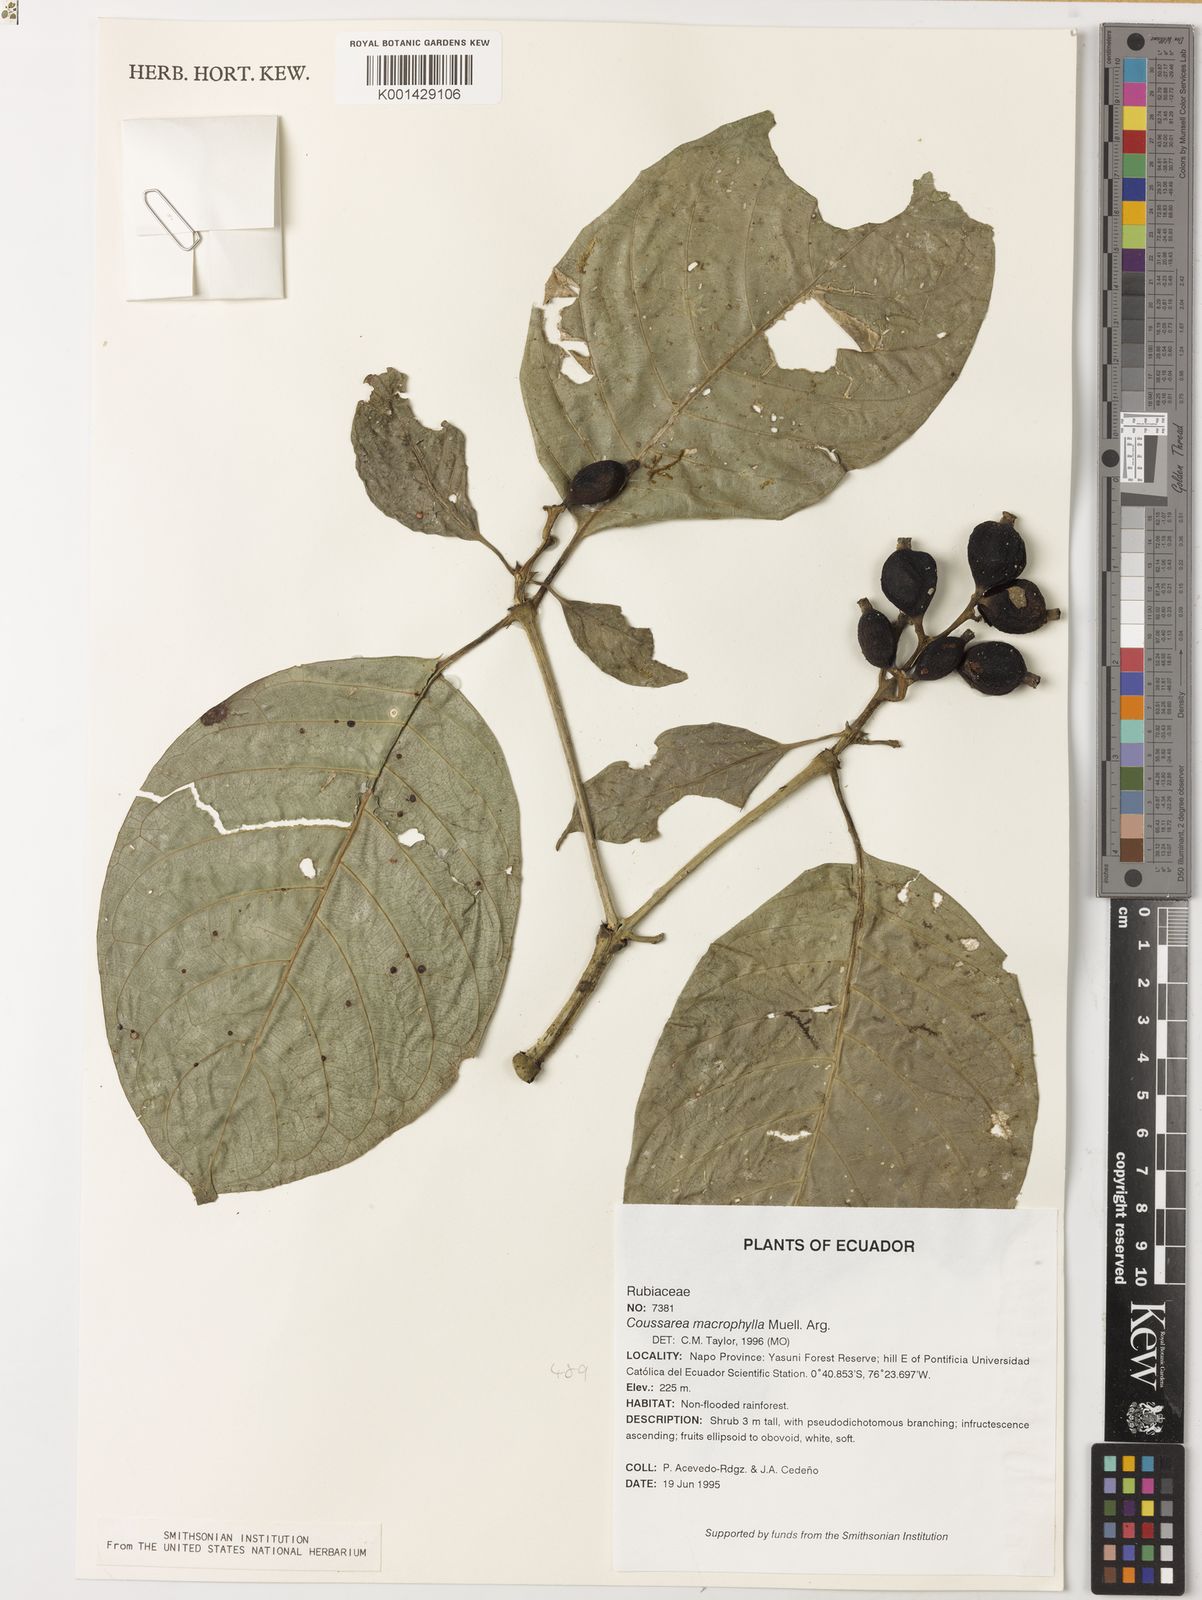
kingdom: Plantae
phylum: Tracheophyta
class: Magnoliopsida
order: Gentianales
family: Rubiaceae
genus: Coussarea
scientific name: Coussarea
